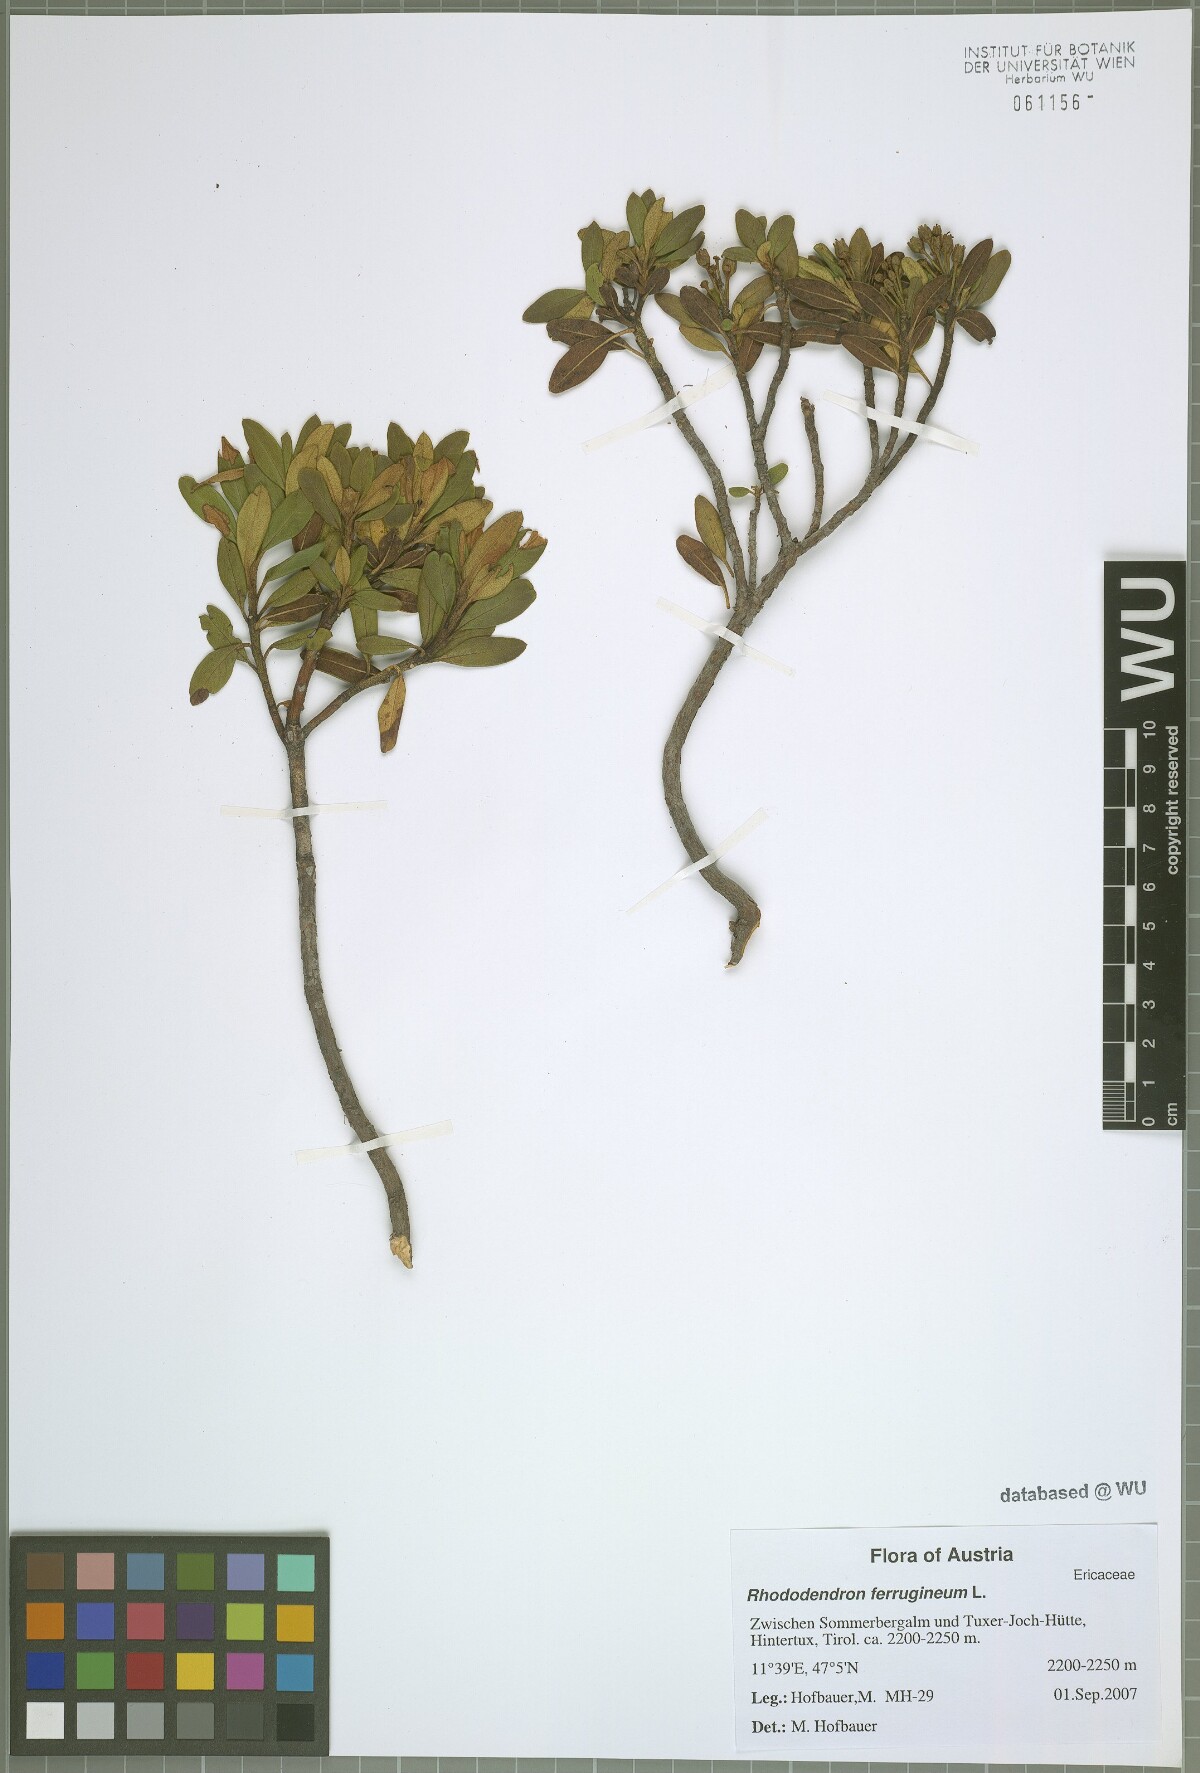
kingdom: Plantae
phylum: Tracheophyta
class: Magnoliopsida
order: Ericales
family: Ericaceae
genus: Rhododendron
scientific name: Rhododendron ferrugineum
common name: Alpenrose
